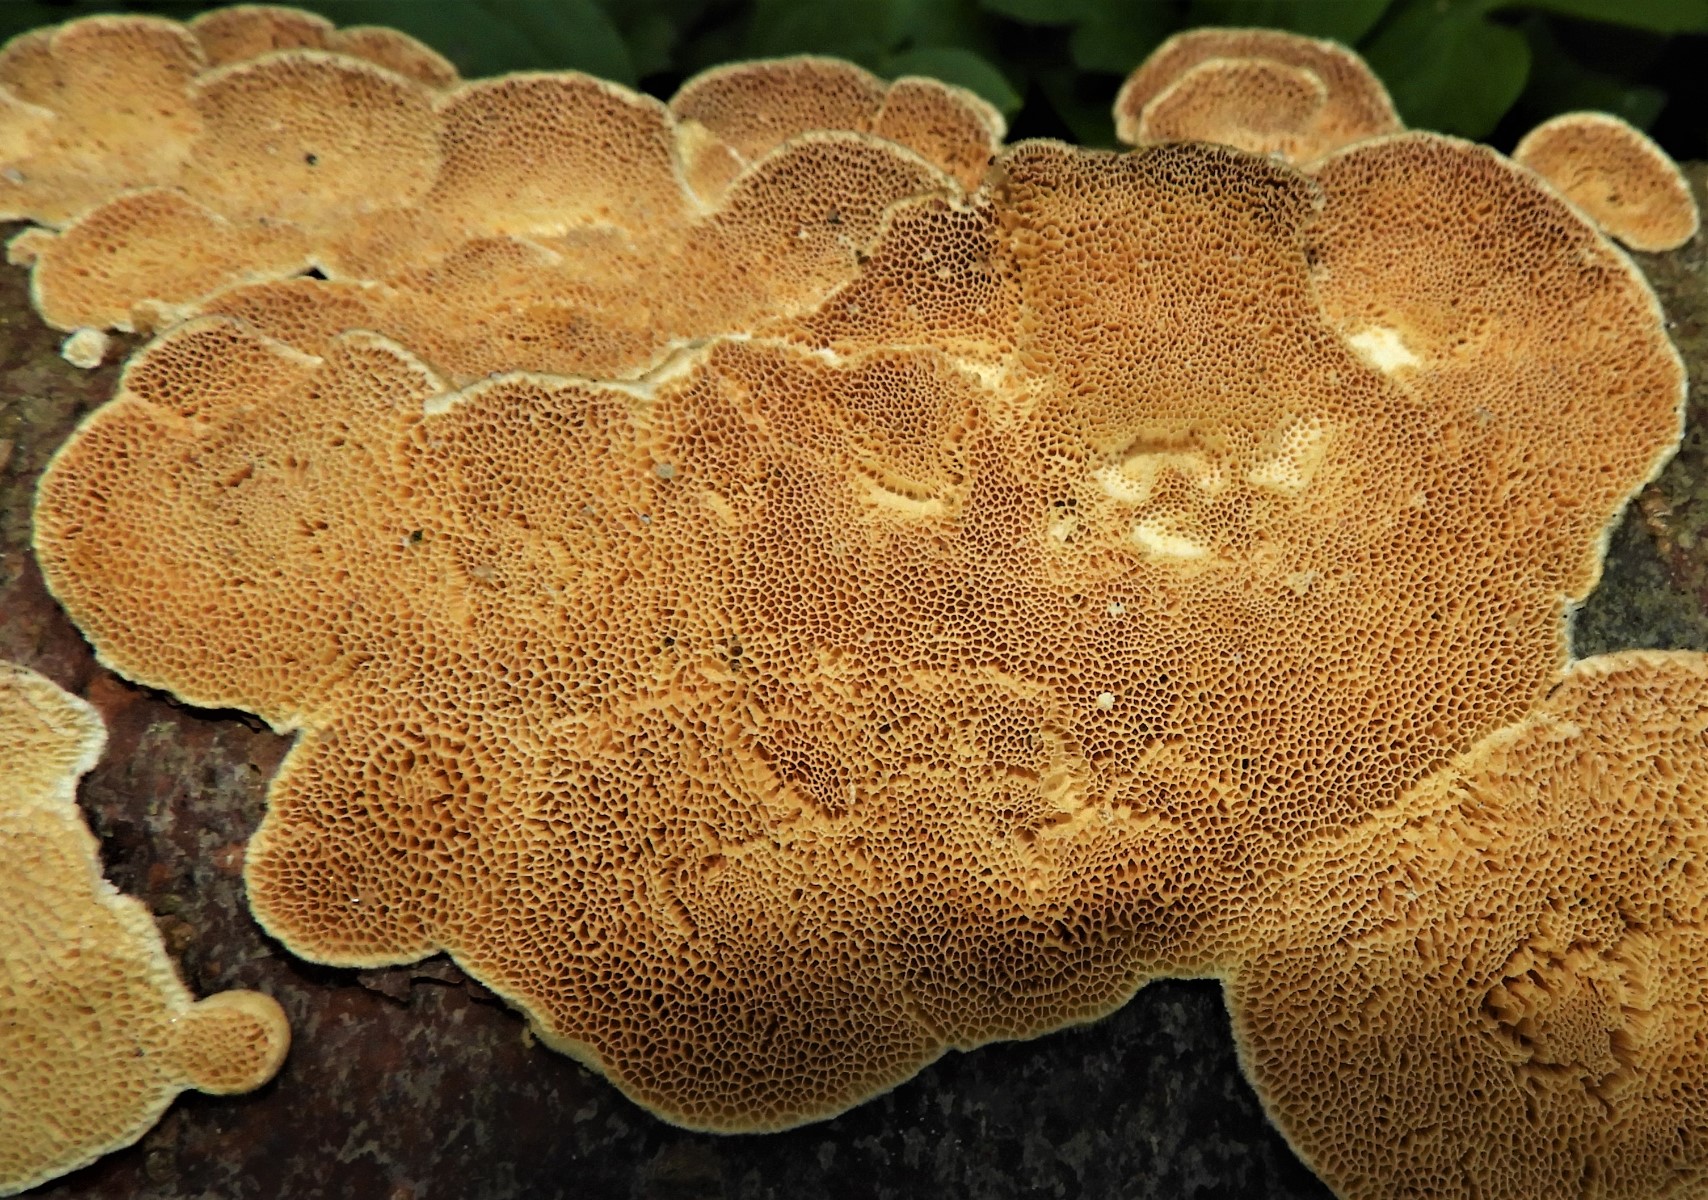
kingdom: Fungi
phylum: Basidiomycota
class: Agaricomycetes
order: Polyporales
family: Polyporaceae
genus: Trametes
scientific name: Trametes hirsuta
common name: håret læderporesvamp
